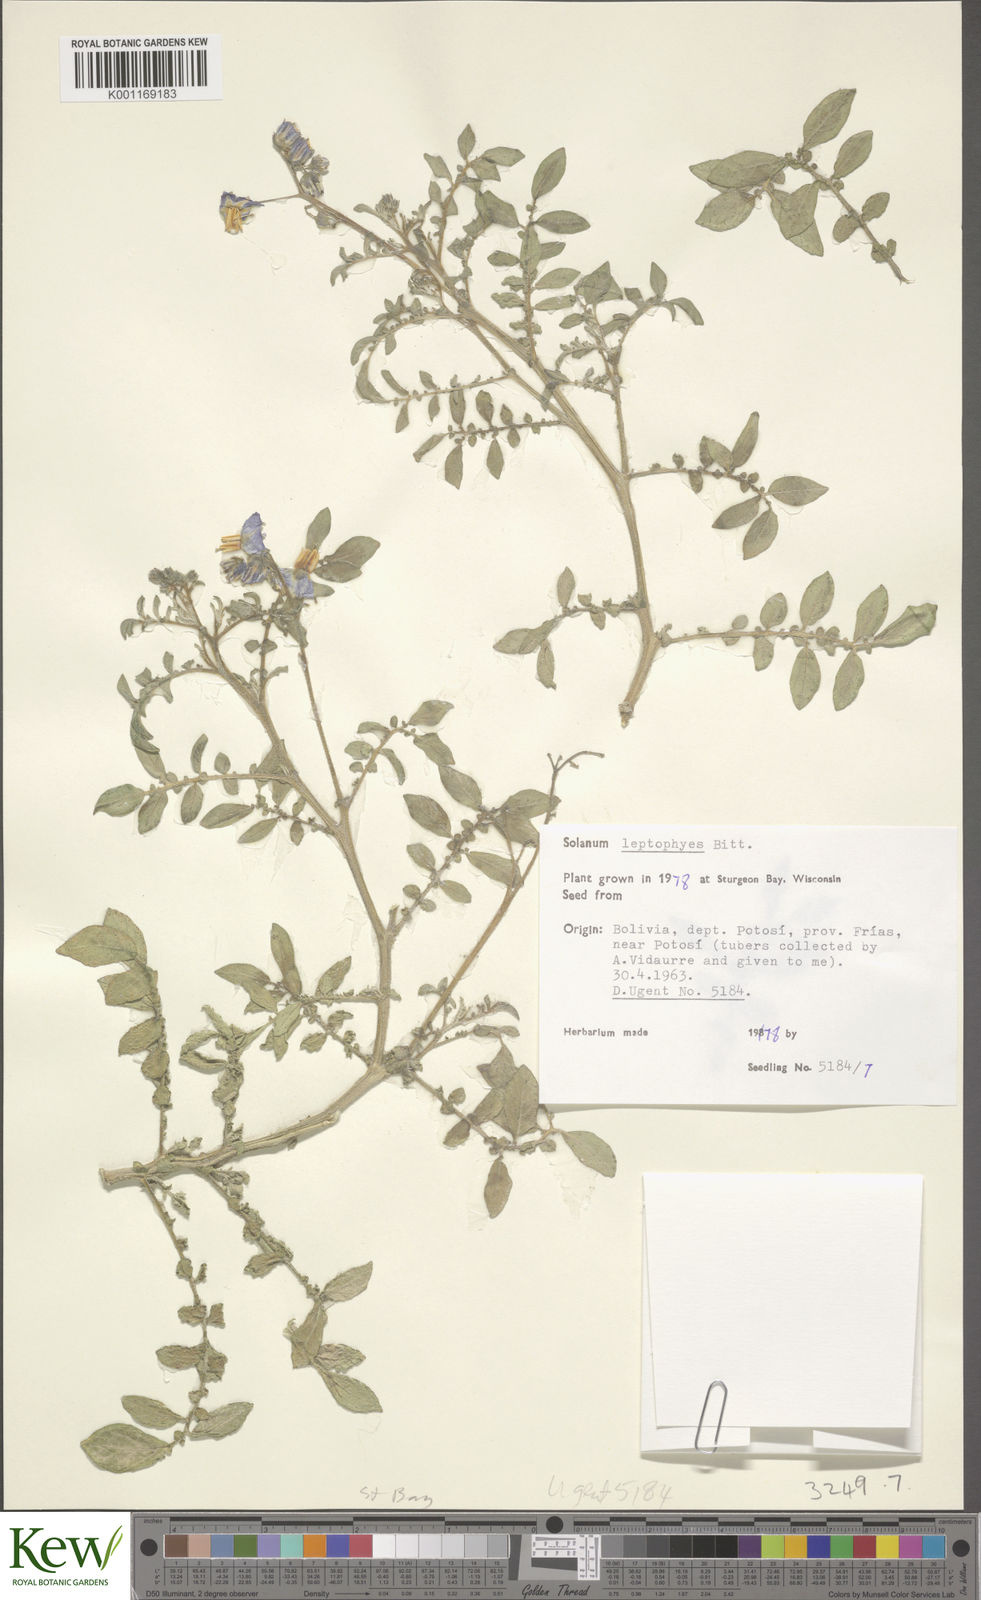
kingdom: Plantae
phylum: Tracheophyta
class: Magnoliopsida
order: Solanales
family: Solanaceae
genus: Solanum
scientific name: Solanum brevicaule
